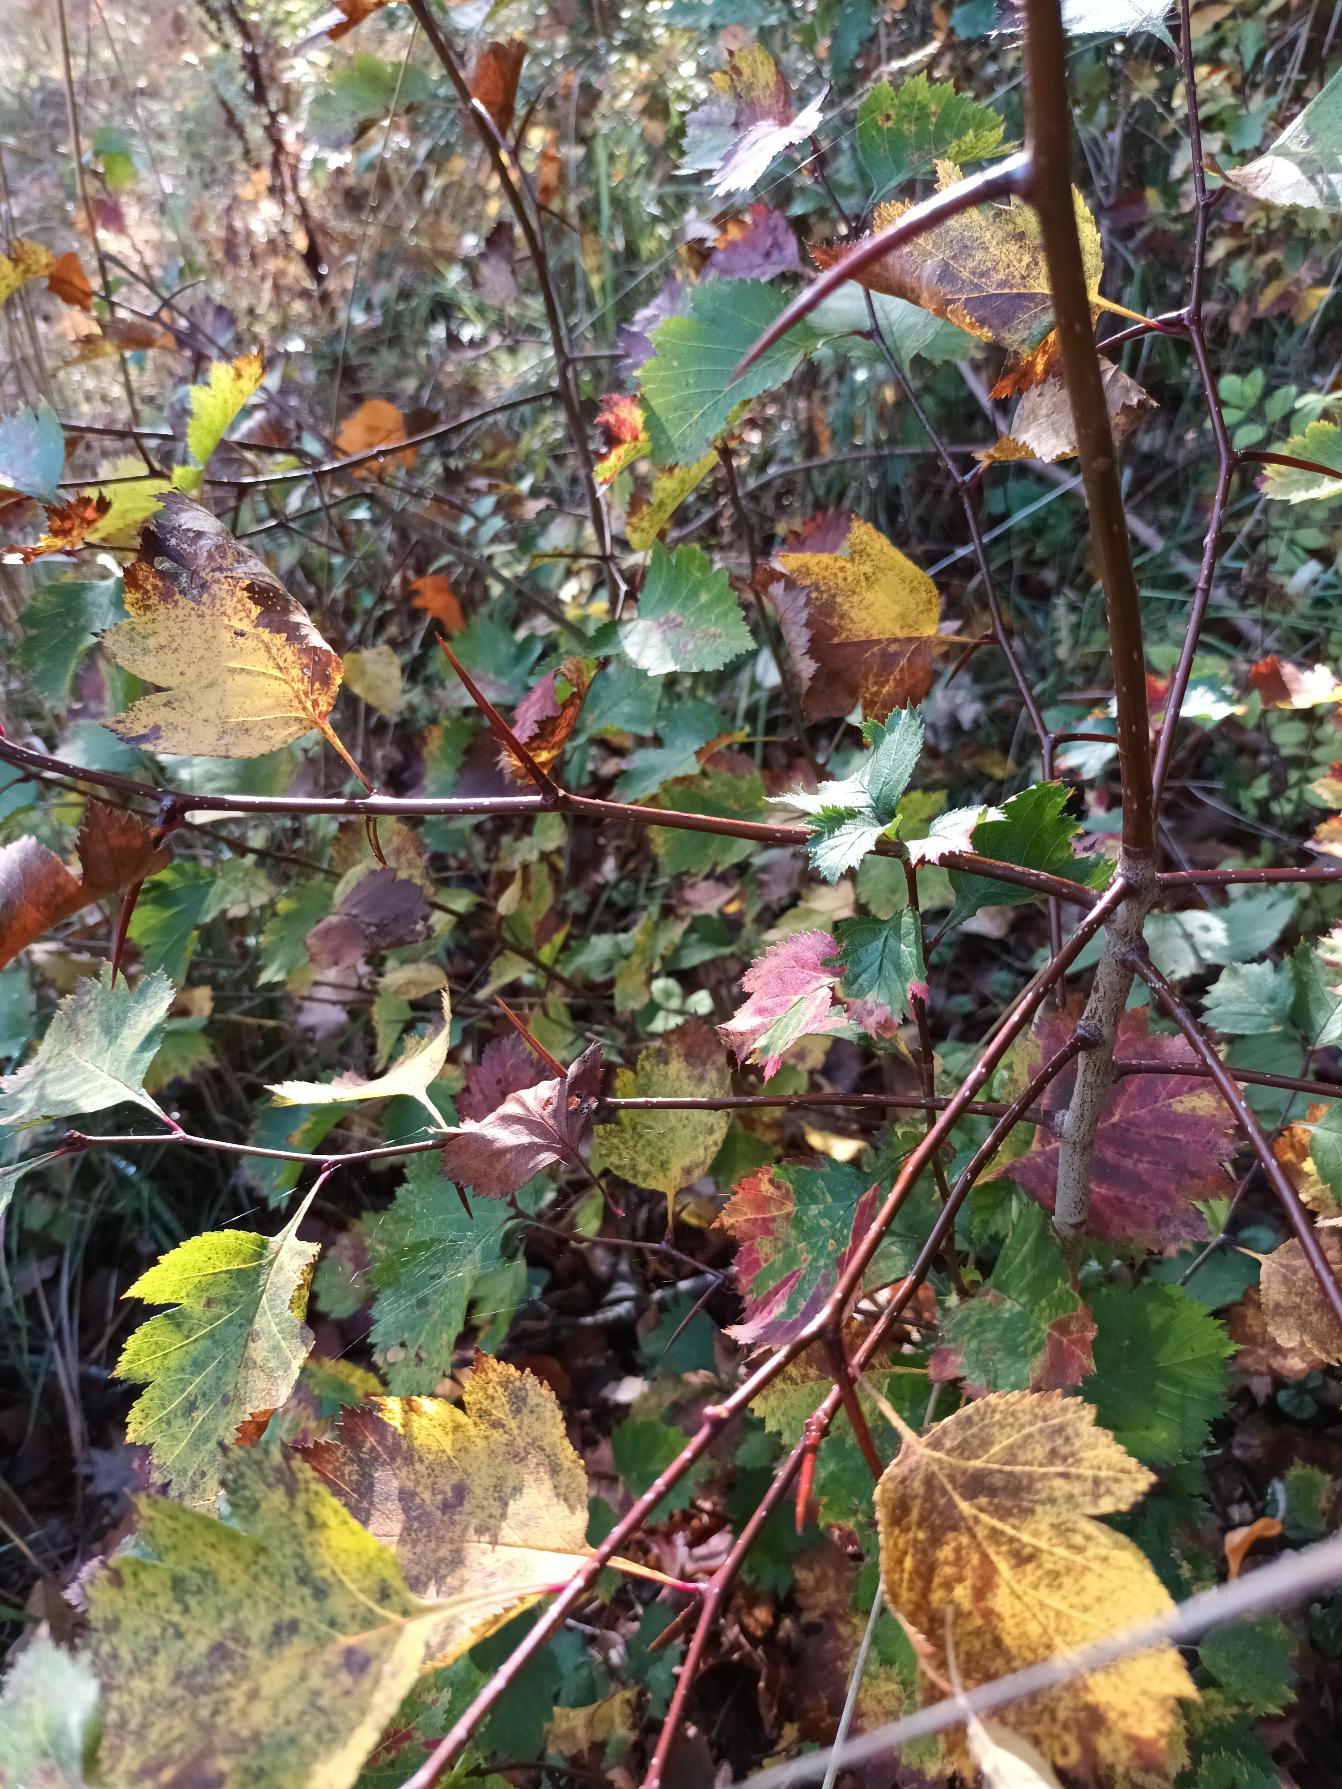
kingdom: Plantae
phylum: Tracheophyta
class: Magnoliopsida
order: Rosales
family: Rosaceae
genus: Crataegus
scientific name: Crataegus
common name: Hvidtjørnslægten
